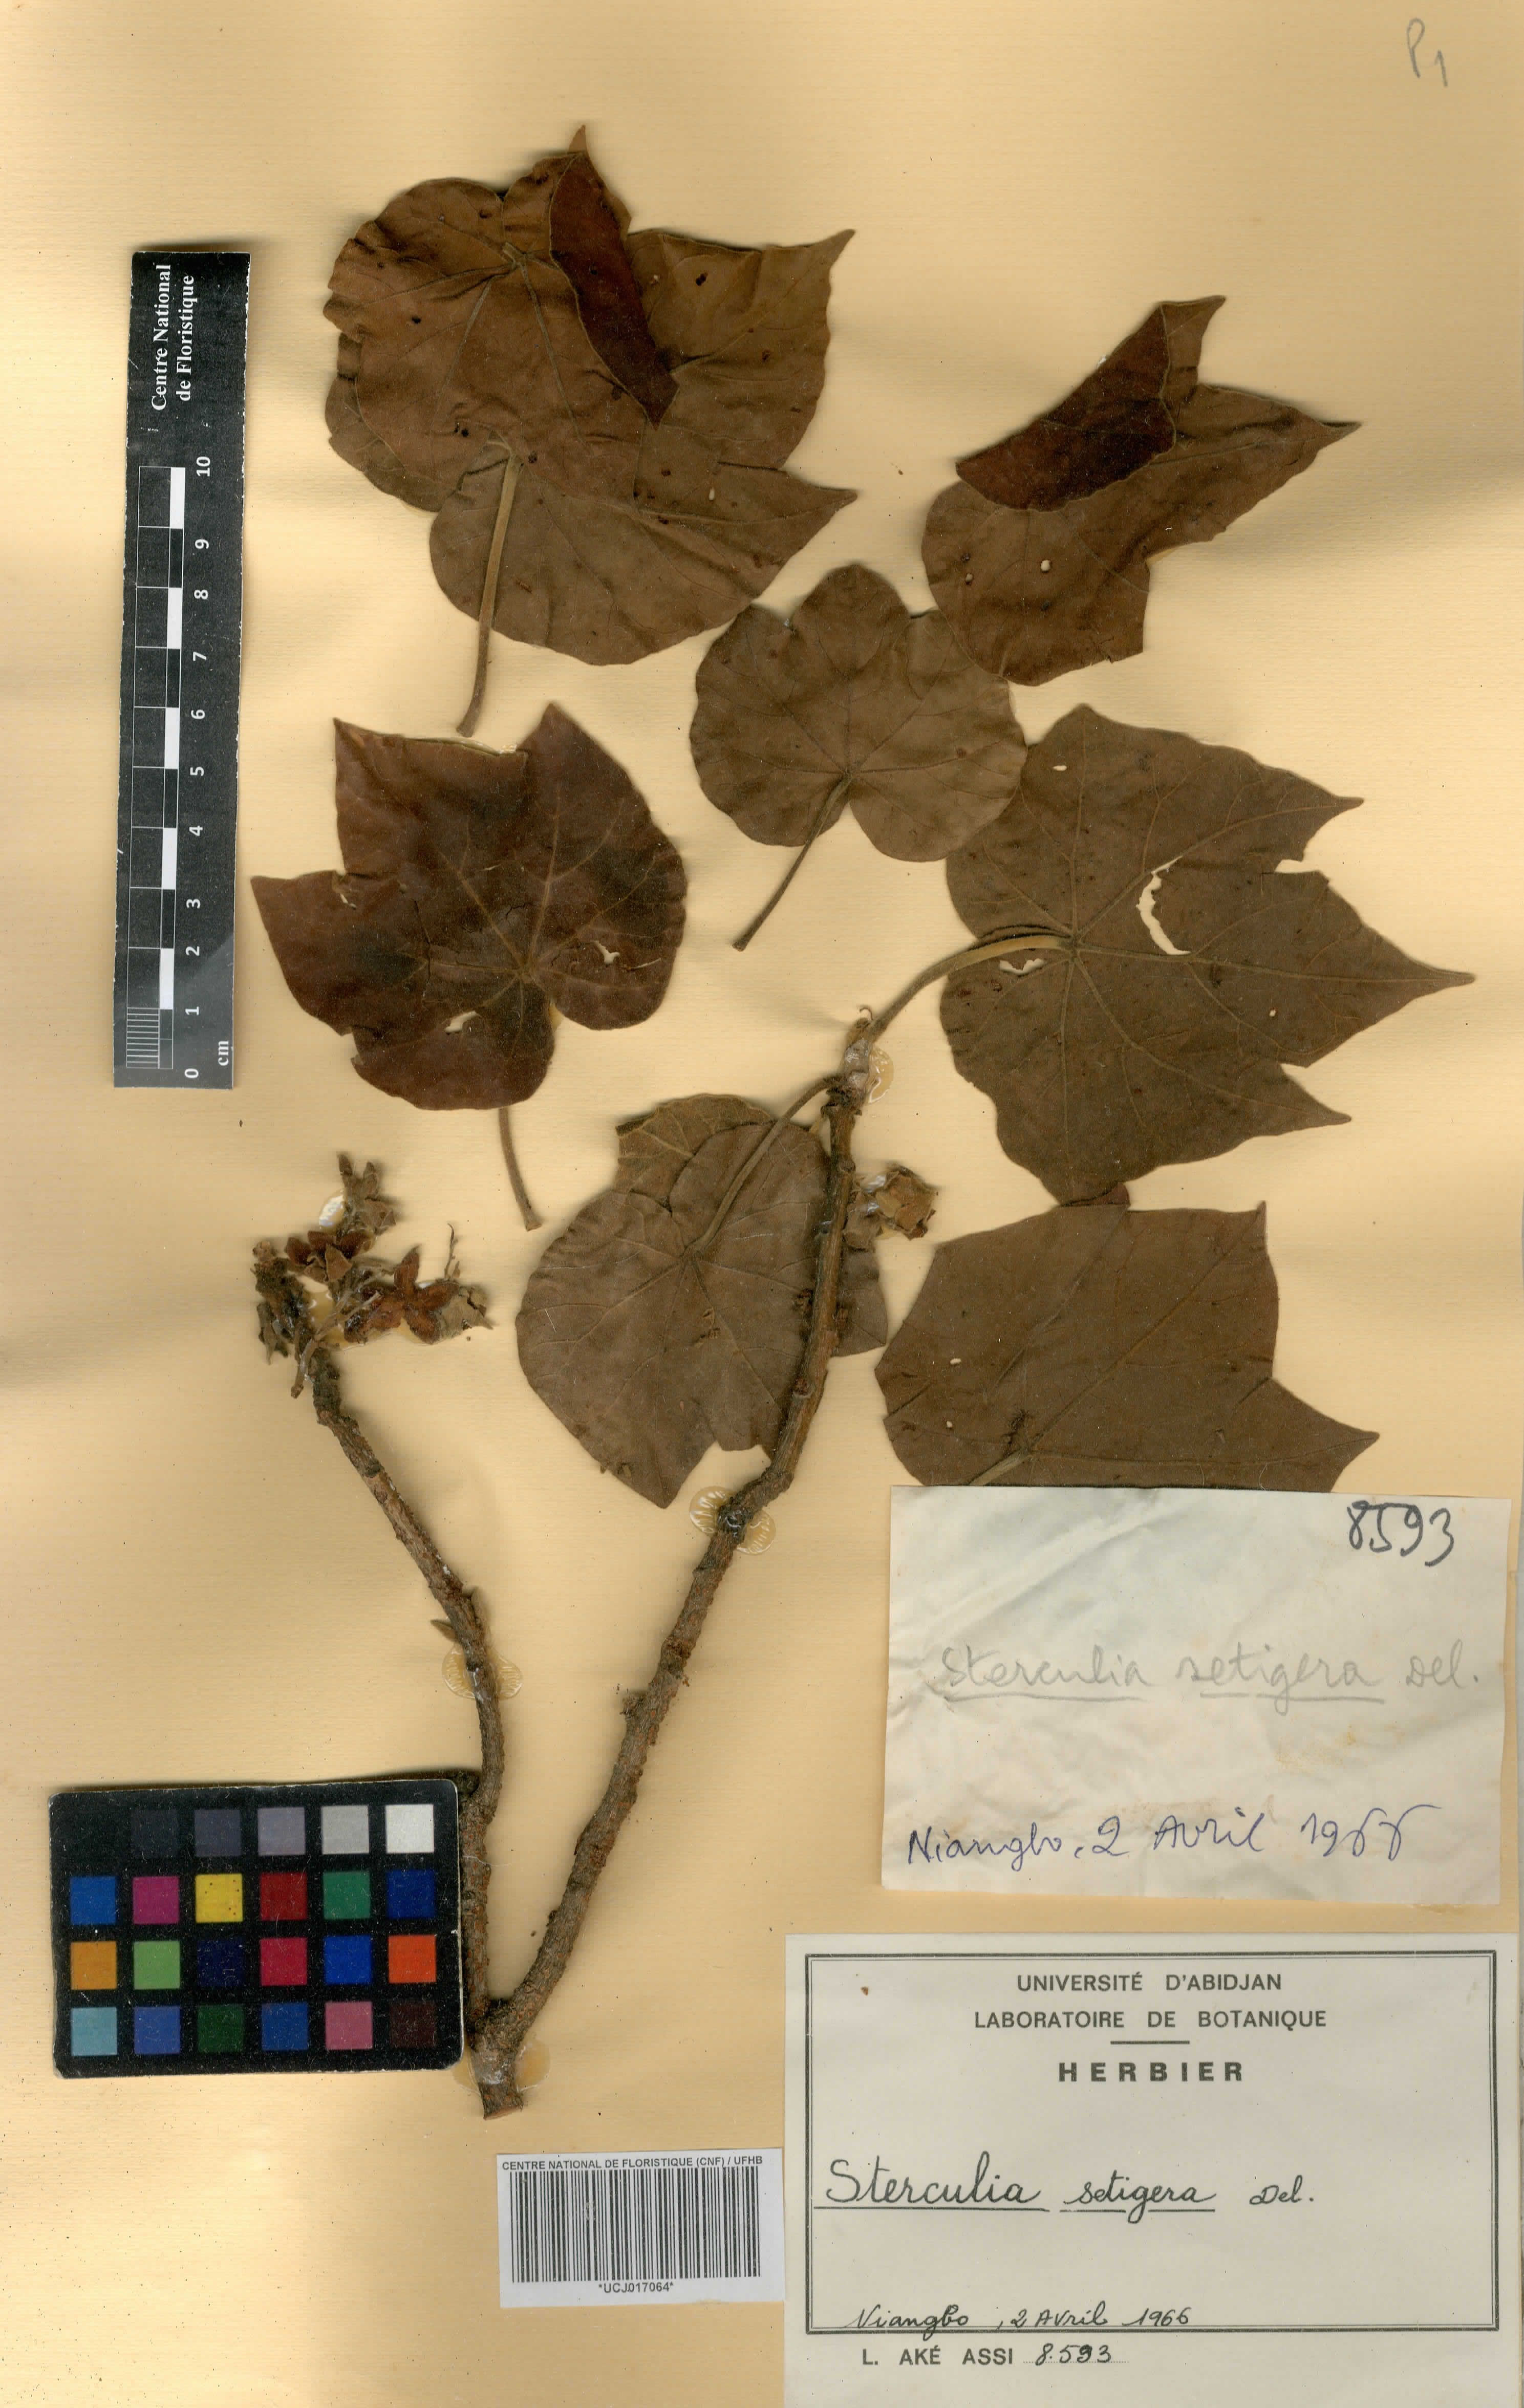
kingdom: Plantae
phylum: Tracheophyta
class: Magnoliopsida
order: Malvales
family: Malvaceae
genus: Sterculia
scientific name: Sterculia setigera
